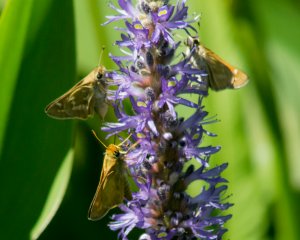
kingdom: Animalia
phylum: Arthropoda
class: Insecta
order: Lepidoptera
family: Hesperiidae
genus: Atalopedes
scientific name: Atalopedes campestris
